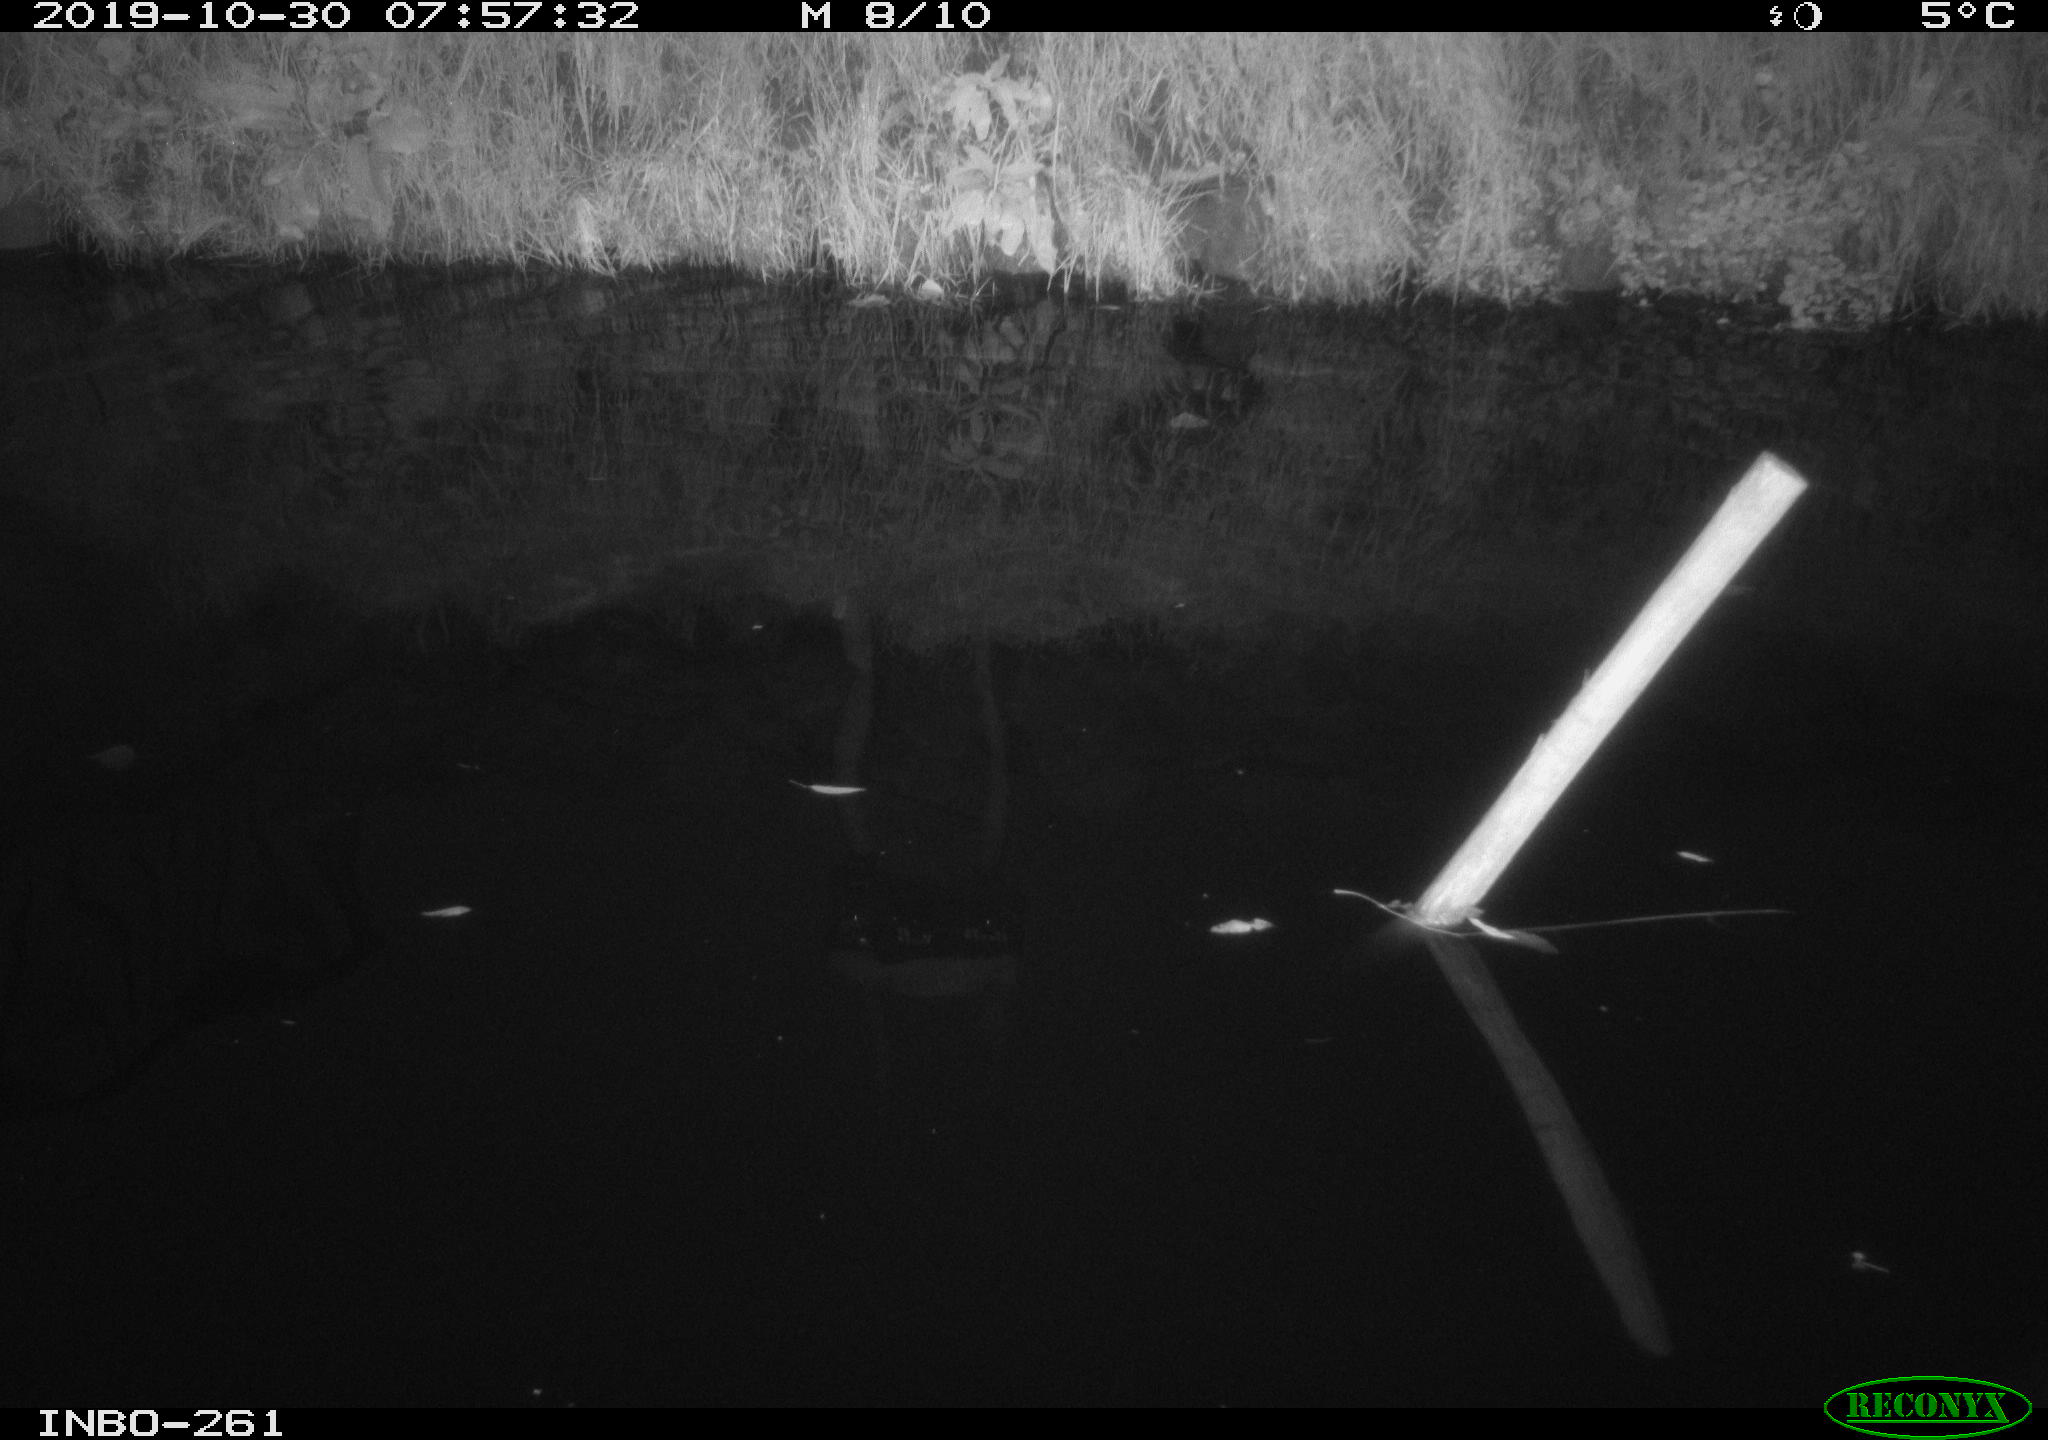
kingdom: Animalia
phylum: Chordata
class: Aves
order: Anseriformes
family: Anatidae
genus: Anas
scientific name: Anas platyrhynchos
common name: Mallard
